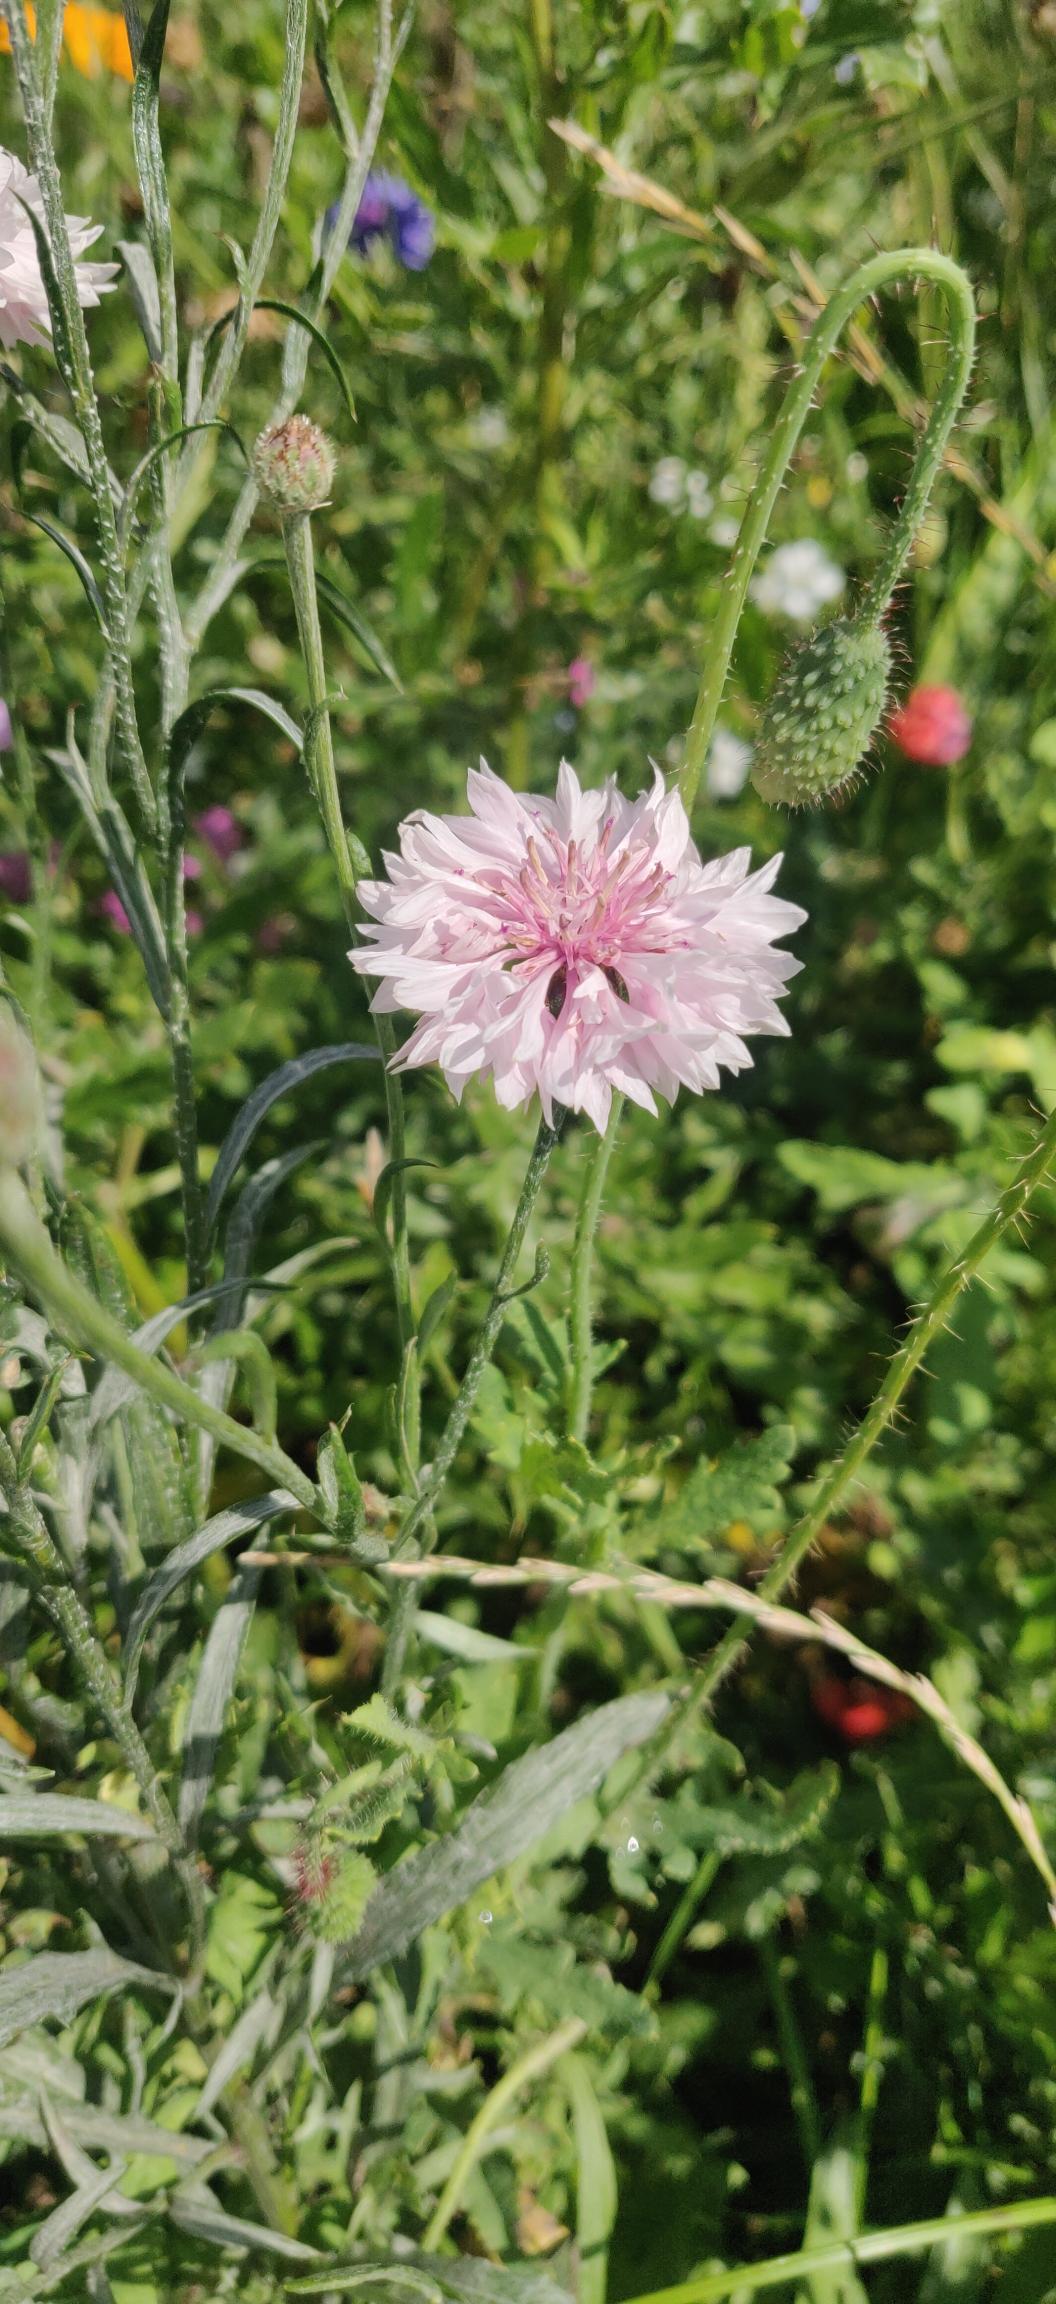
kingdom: Plantae
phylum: Tracheophyta
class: Magnoliopsida
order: Asterales
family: Asteraceae
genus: Centaurea
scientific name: Centaurea cyanus
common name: Kornblomst
